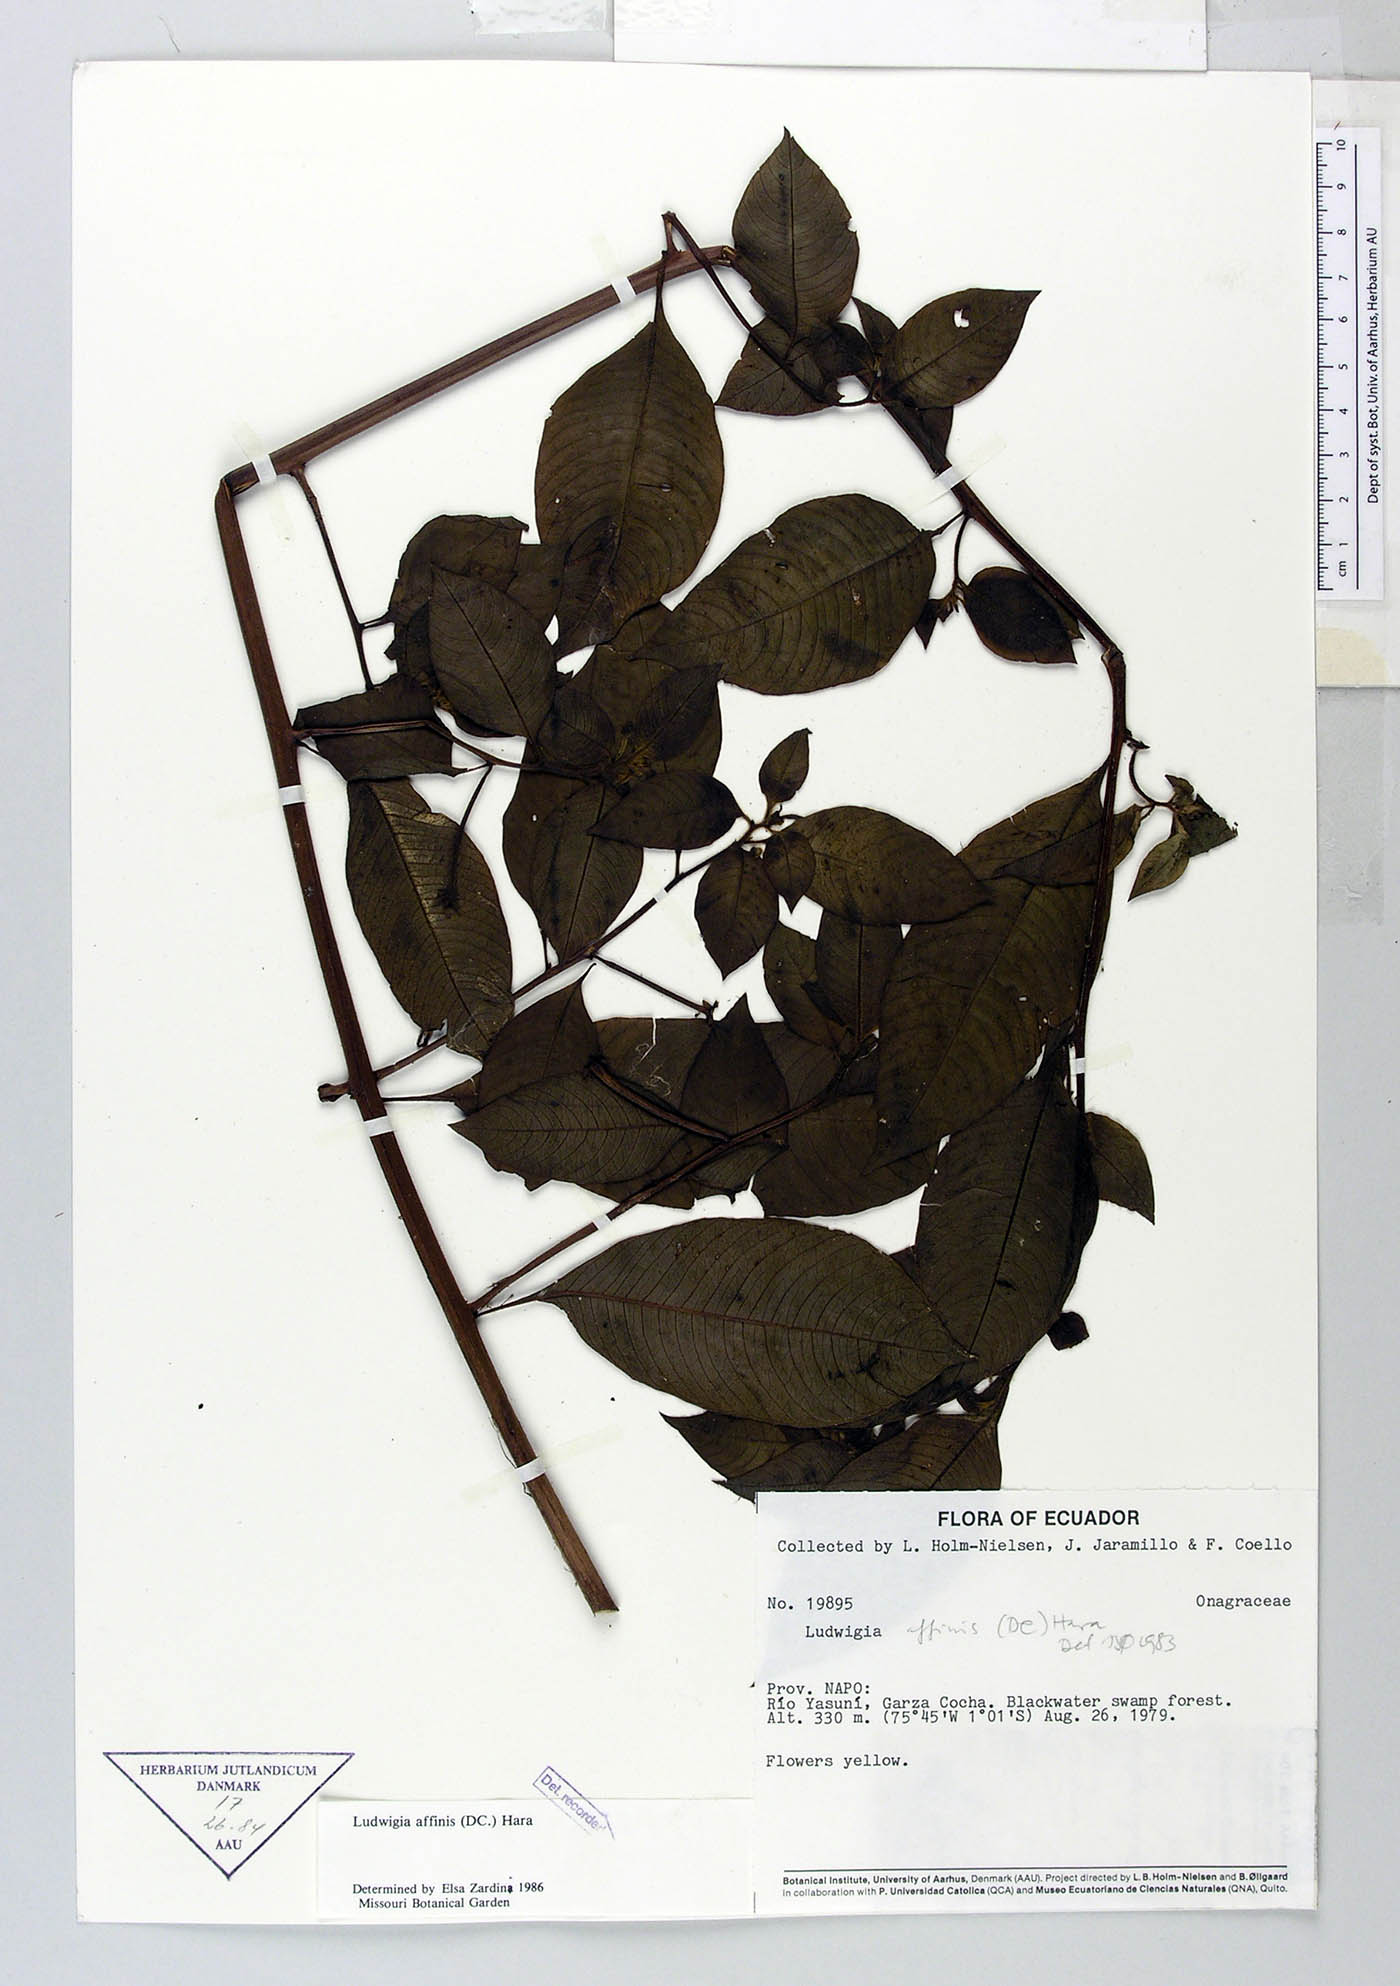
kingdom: Plantae
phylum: Tracheophyta
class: Magnoliopsida
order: Myrtales
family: Onagraceae
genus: Ludwigia
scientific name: Ludwigia affinis
